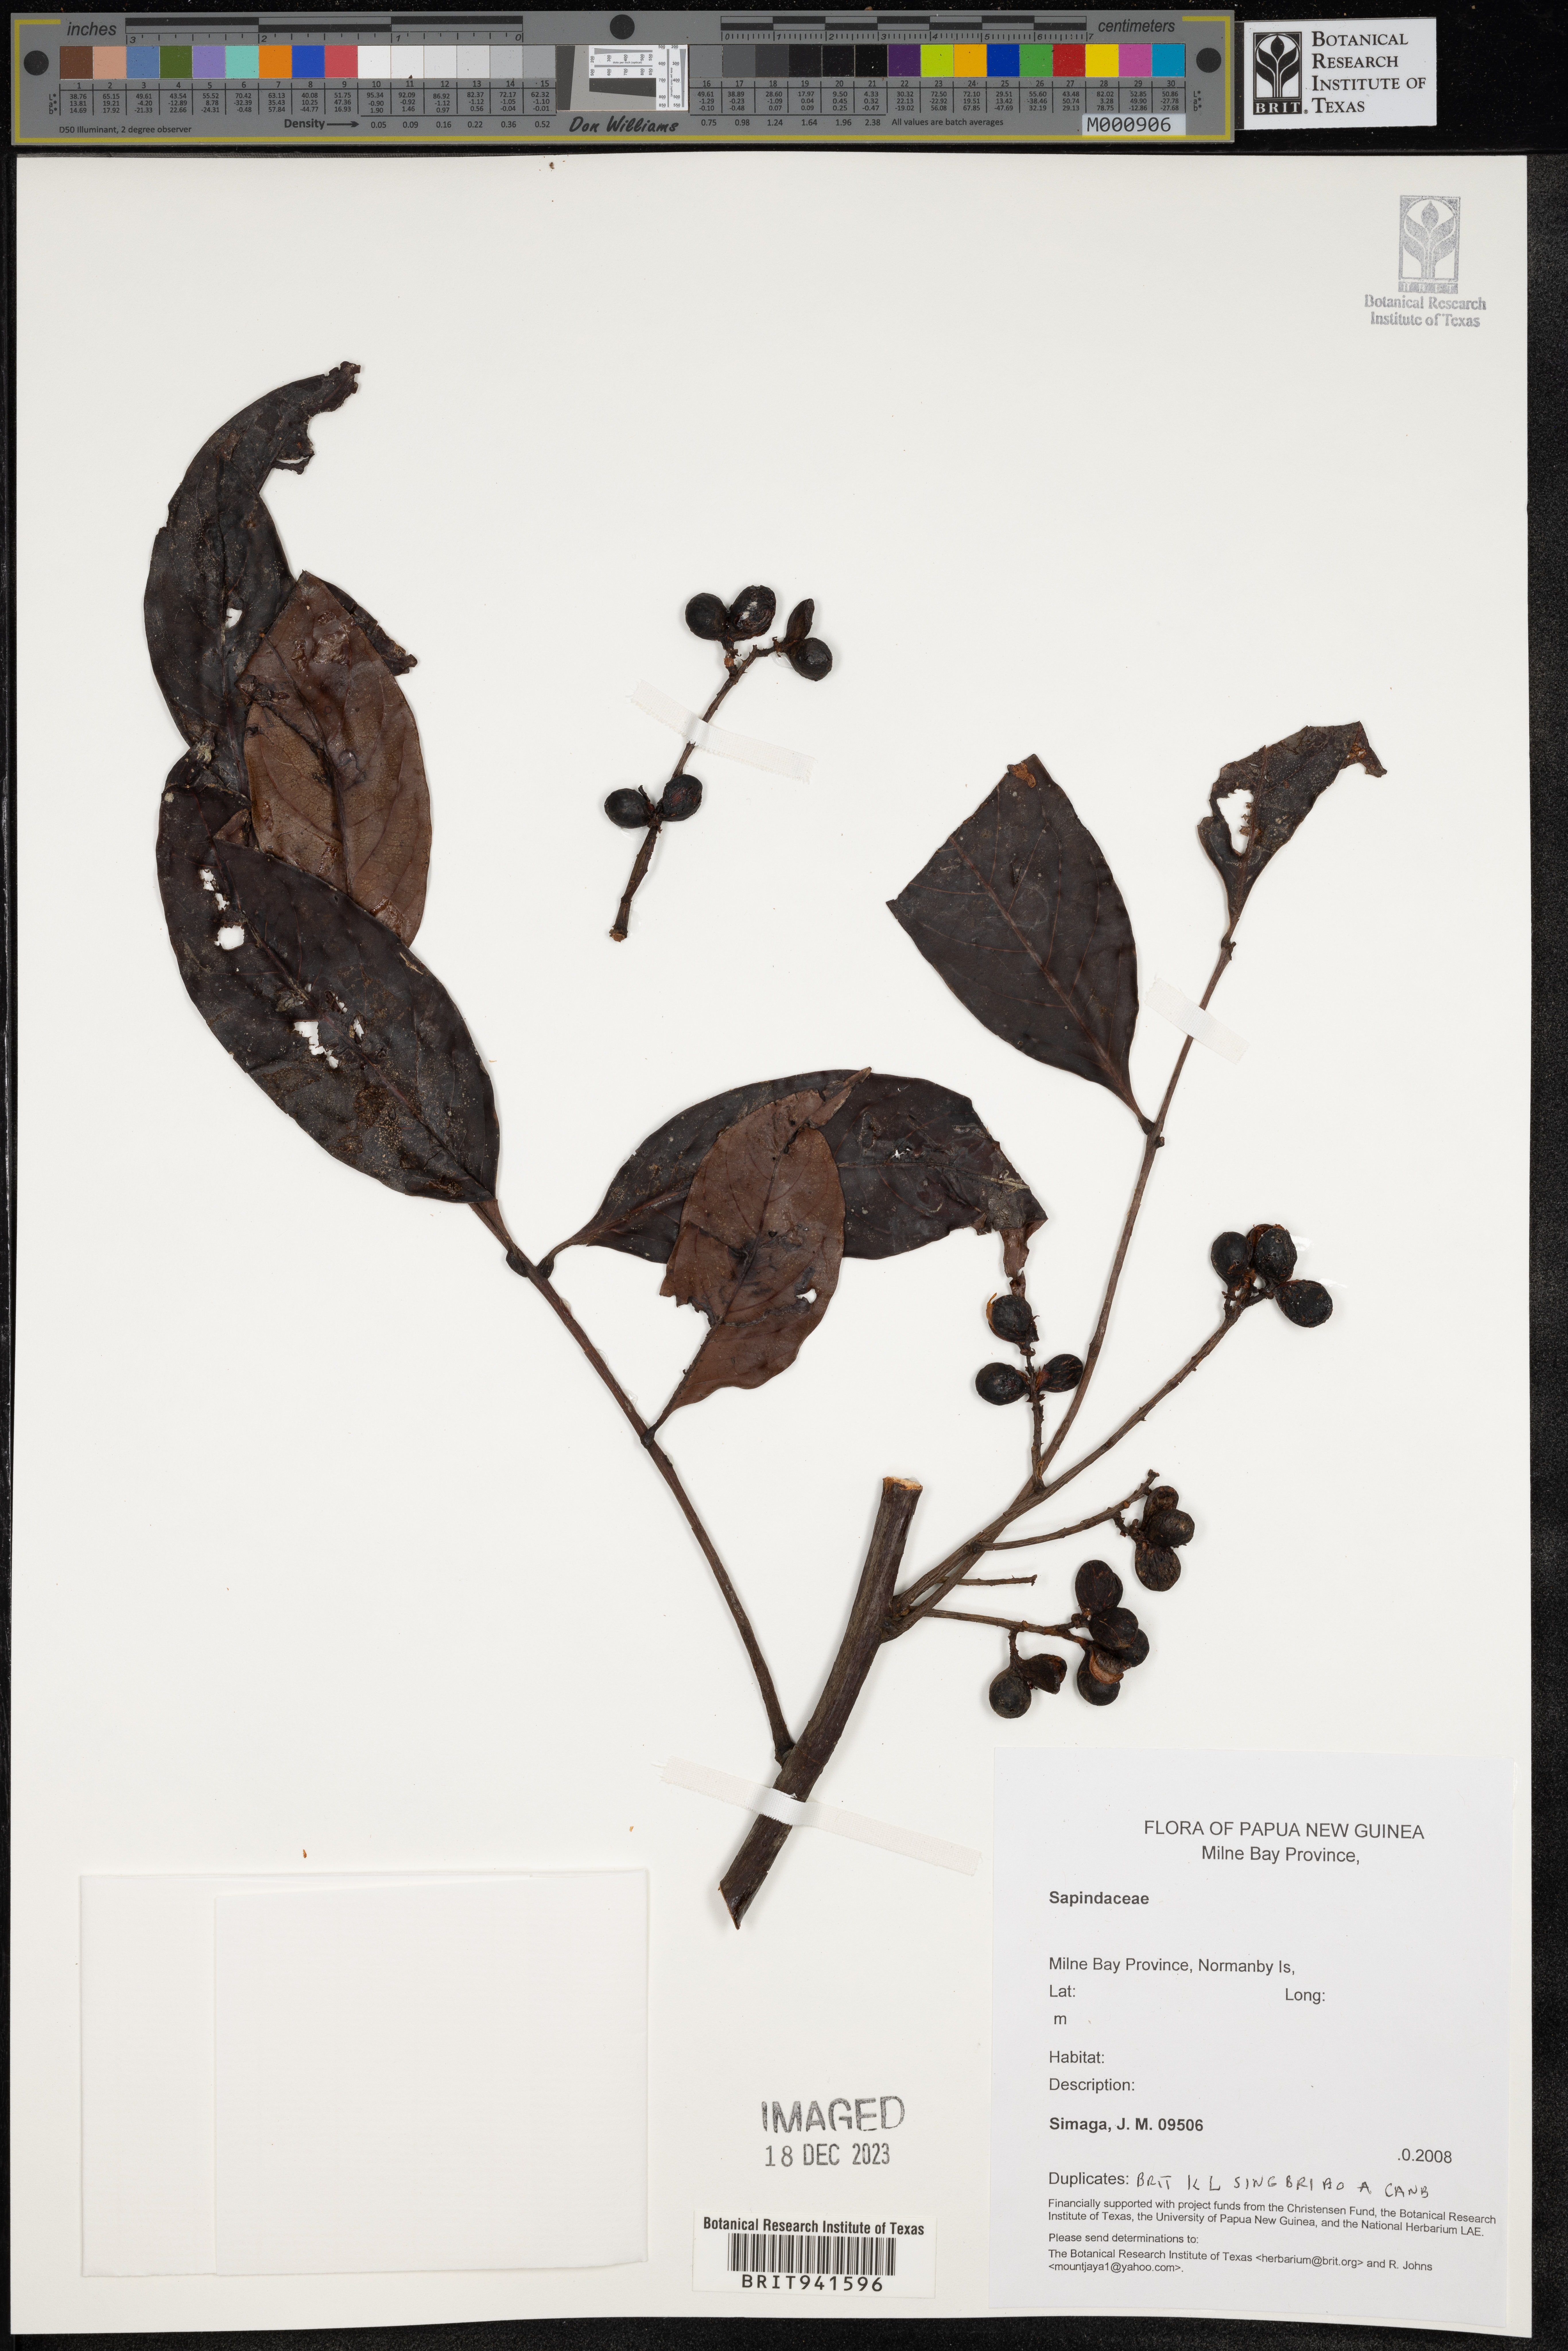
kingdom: Plantae
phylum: Tracheophyta
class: Magnoliopsida
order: Sapindales
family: Sapindaceae
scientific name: Sapindaceae
